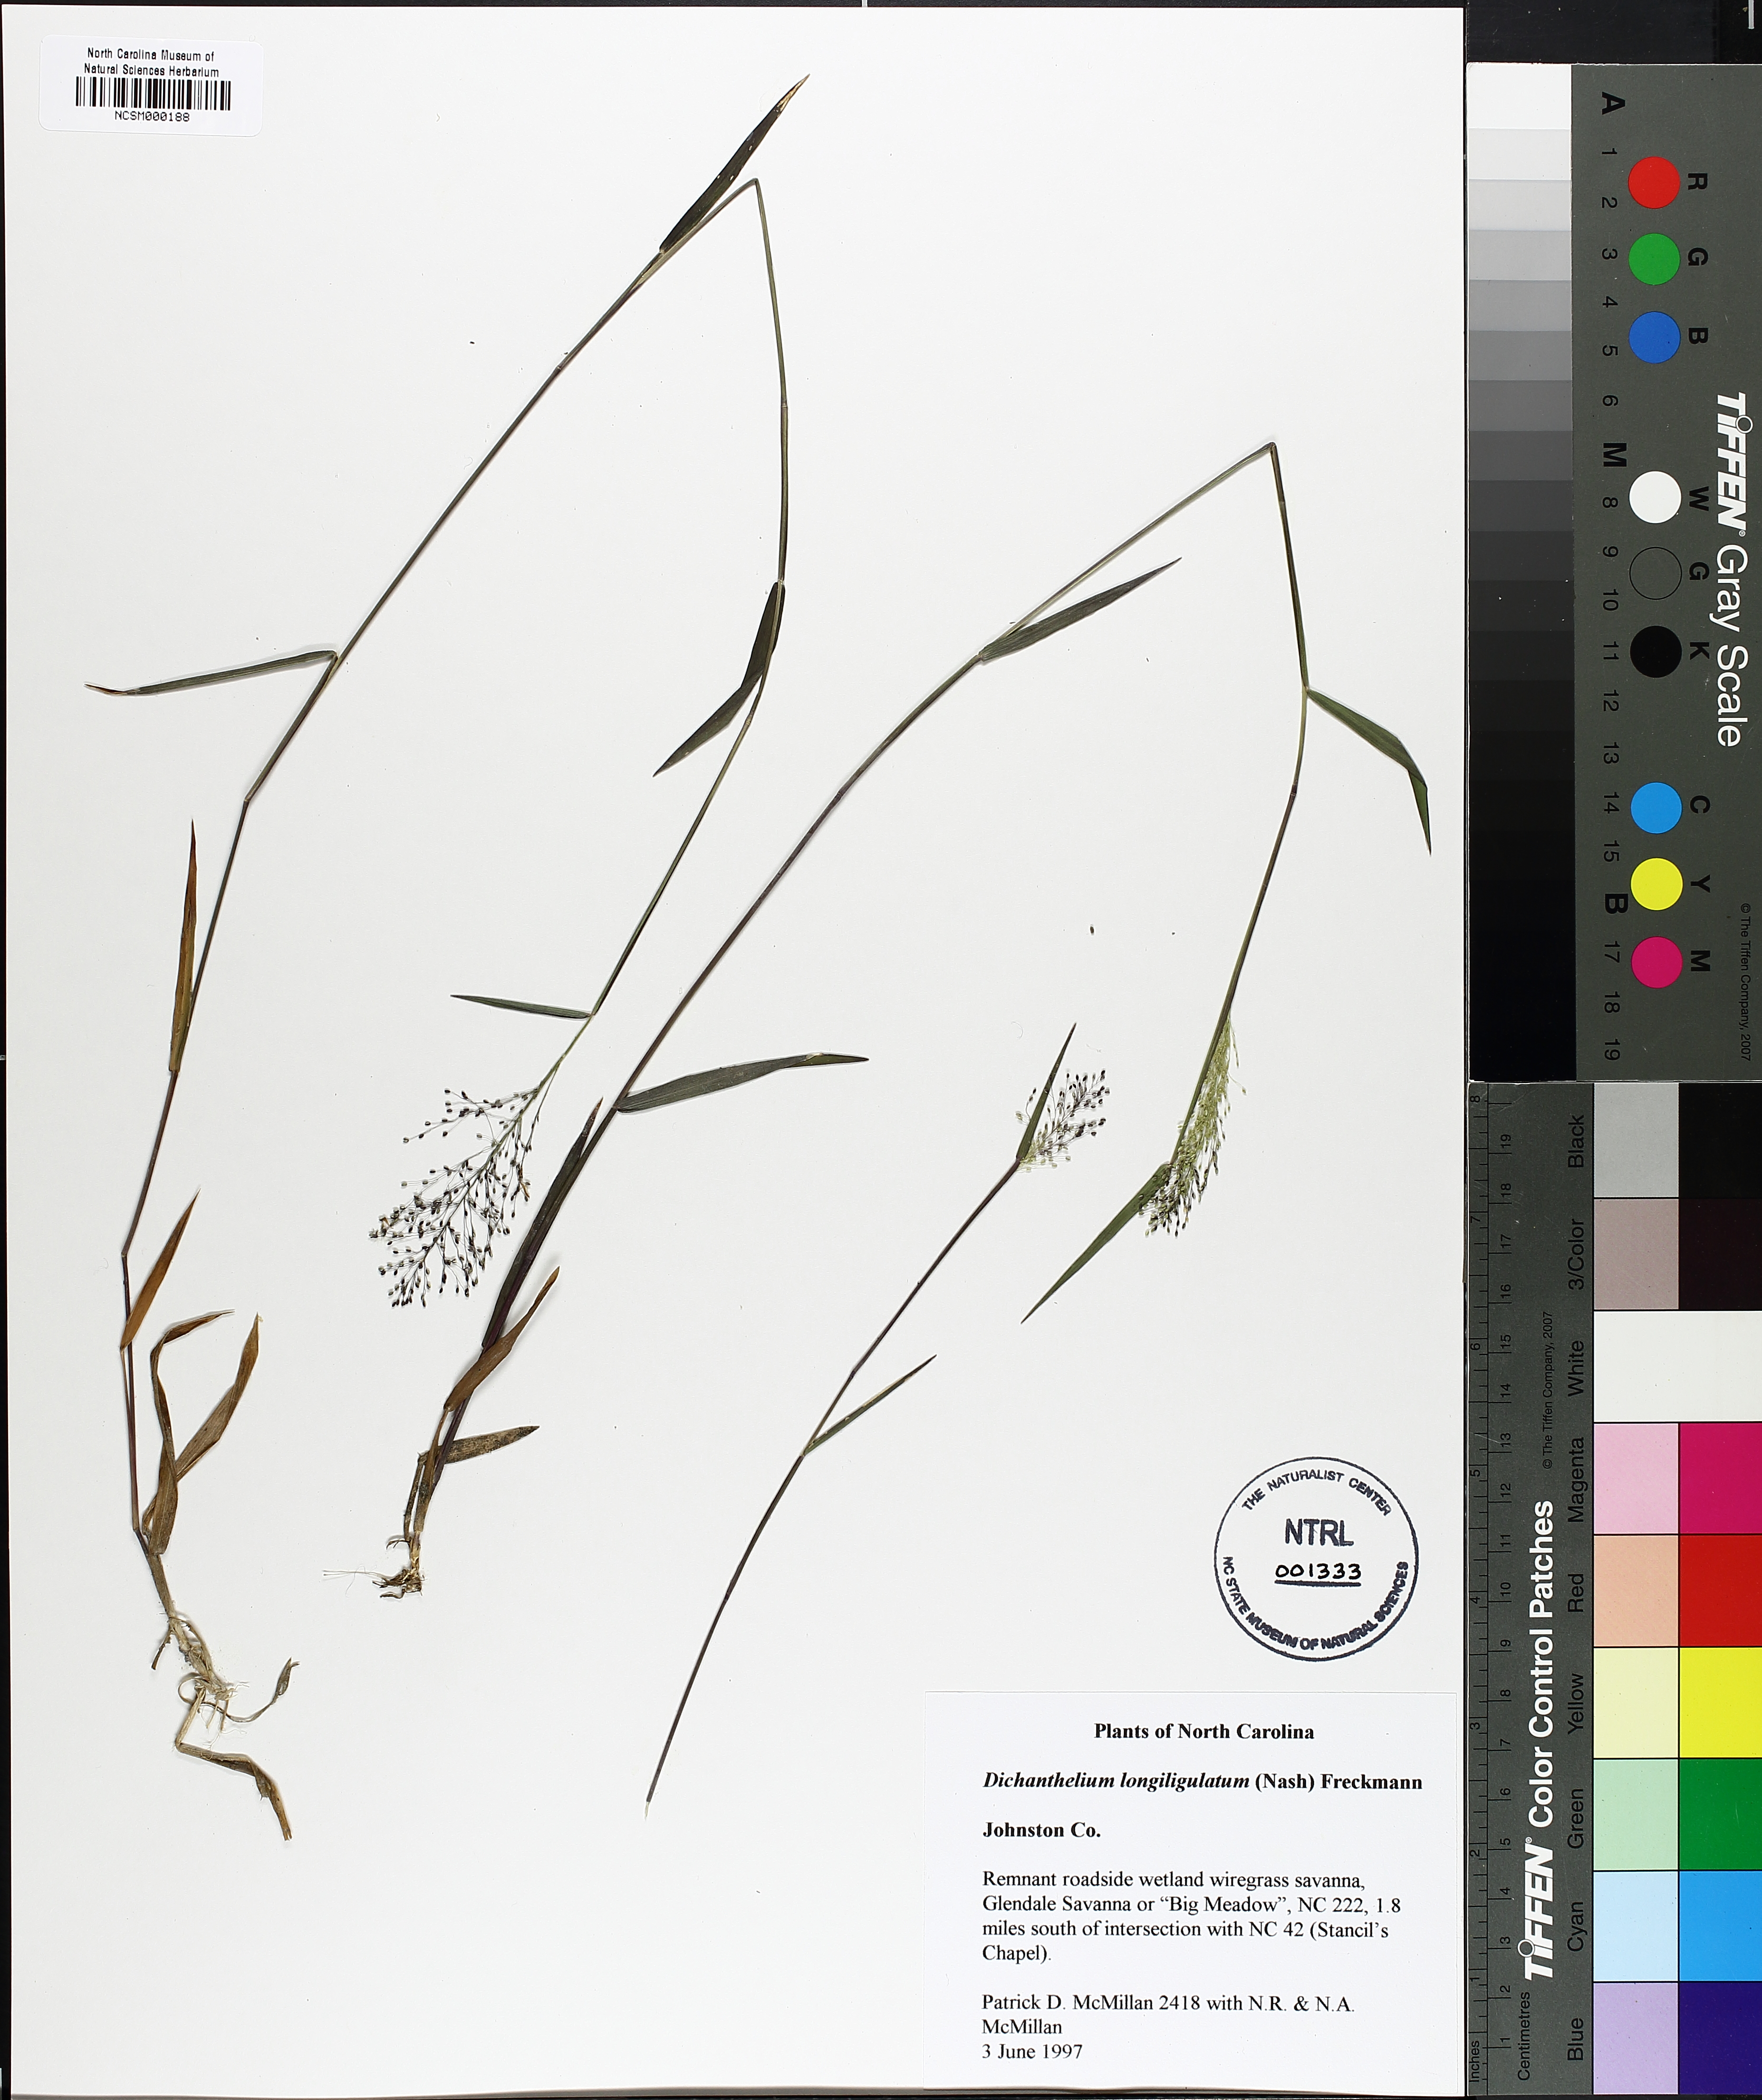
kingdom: Plantae
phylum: Tracheophyta
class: Liliopsida
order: Poales
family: Poaceae
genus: Dichanthelium
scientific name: Dichanthelium longiligulatum
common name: Long-ligule panicgrass
